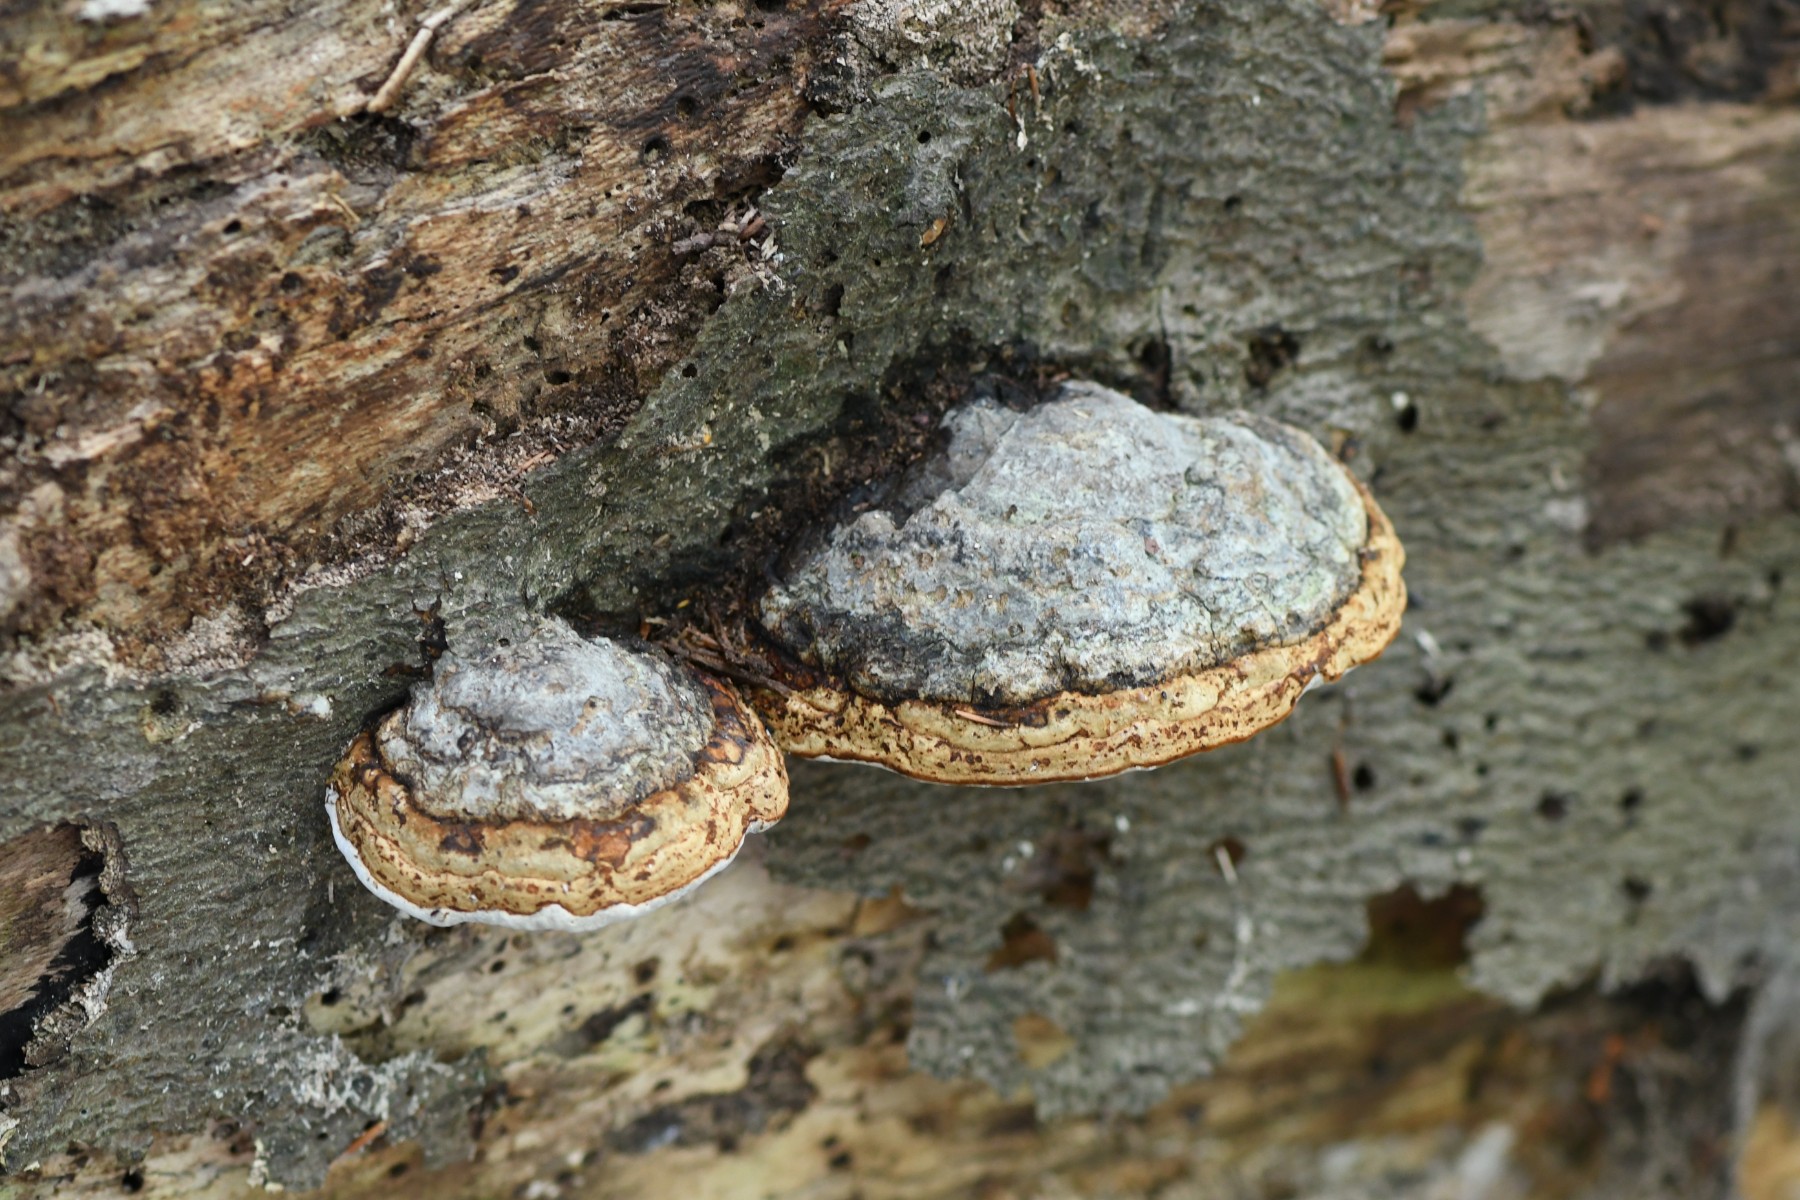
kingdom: Fungi
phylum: Basidiomycota
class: Agaricomycetes
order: Polyporales
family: Polyporaceae
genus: Fomes
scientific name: Fomes fomentarius
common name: tøndersvamp
